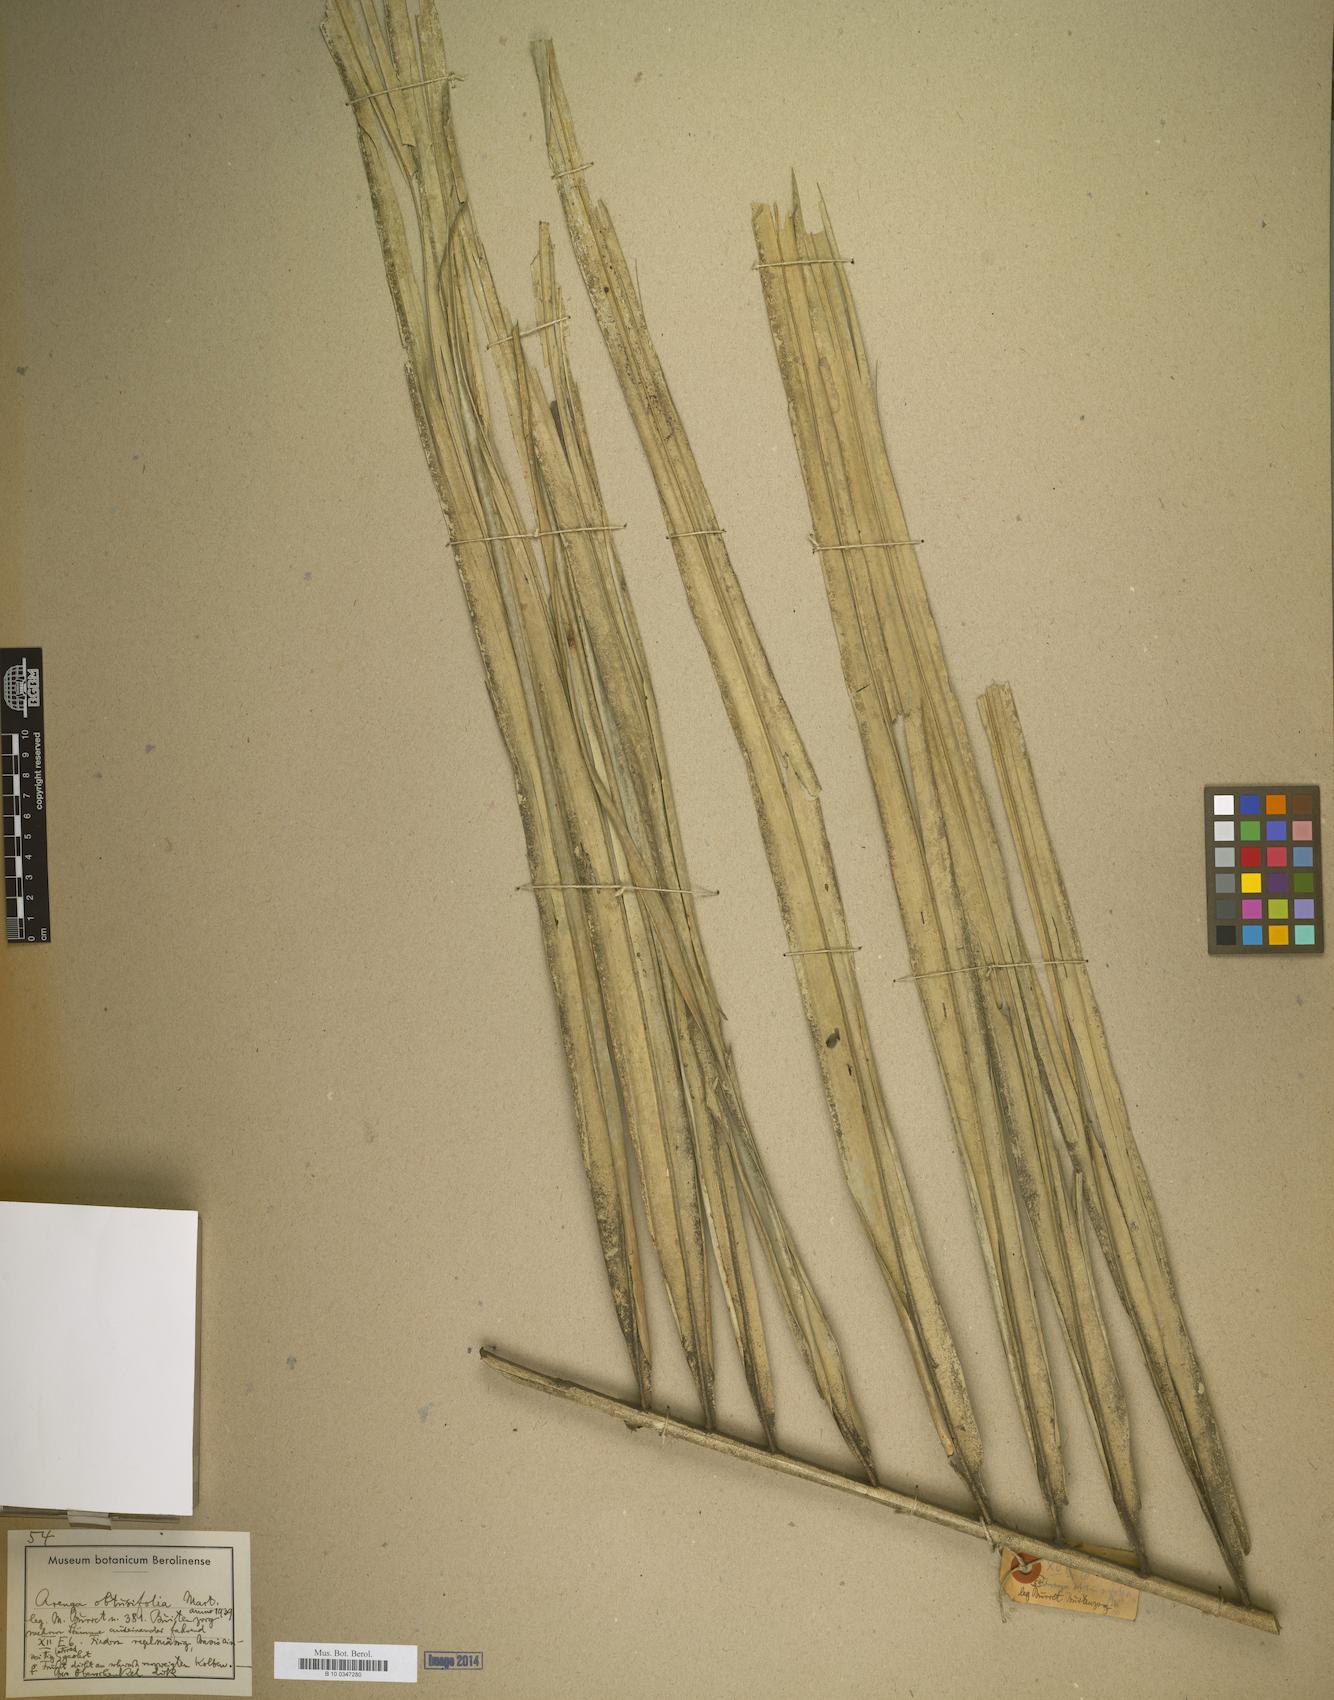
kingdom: Plantae
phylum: Tracheophyta
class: Liliopsida
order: Arecales
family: Arecaceae
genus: Arenga
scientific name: Arenga obtusifolia
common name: Lang kap
